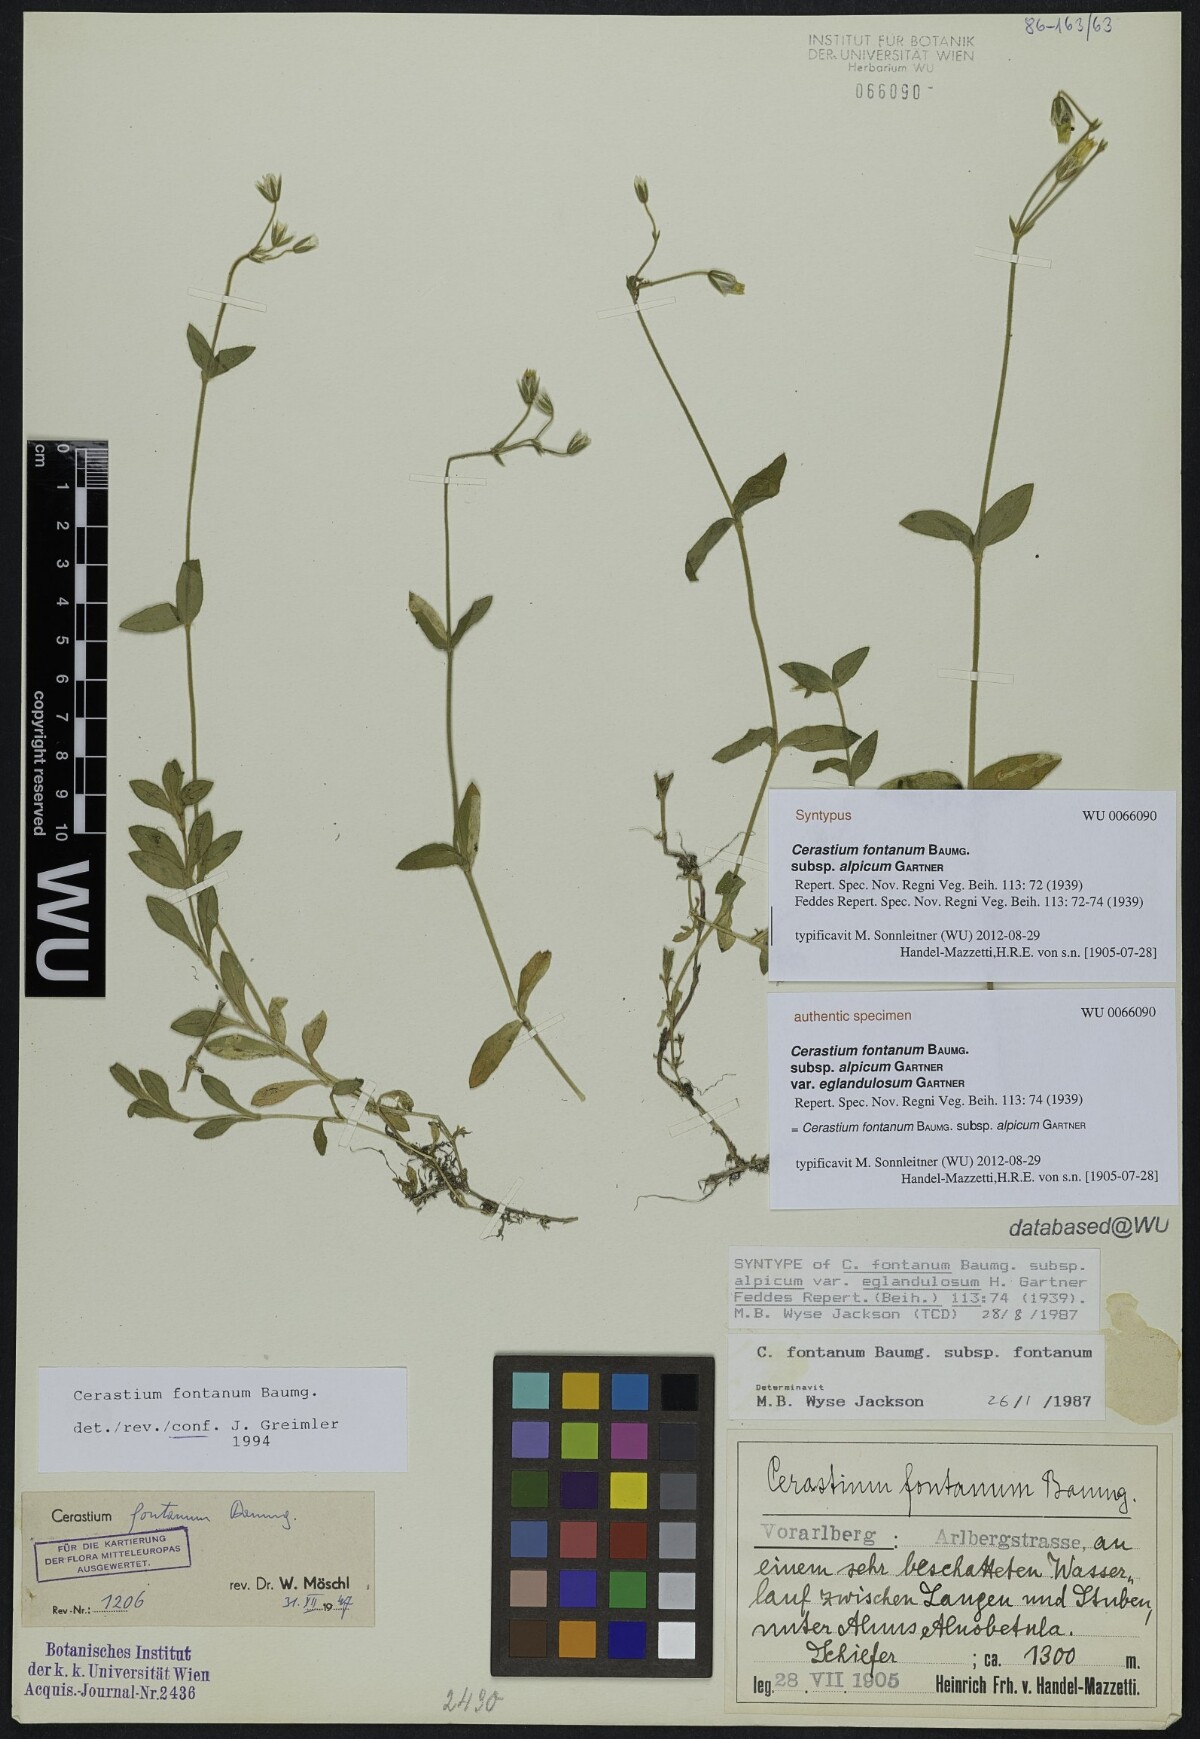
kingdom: Plantae
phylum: Tracheophyta
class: Magnoliopsida
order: Caryophyllales
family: Caryophyllaceae
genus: Cerastium
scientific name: Cerastium fontanum
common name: Common mouse-ear
